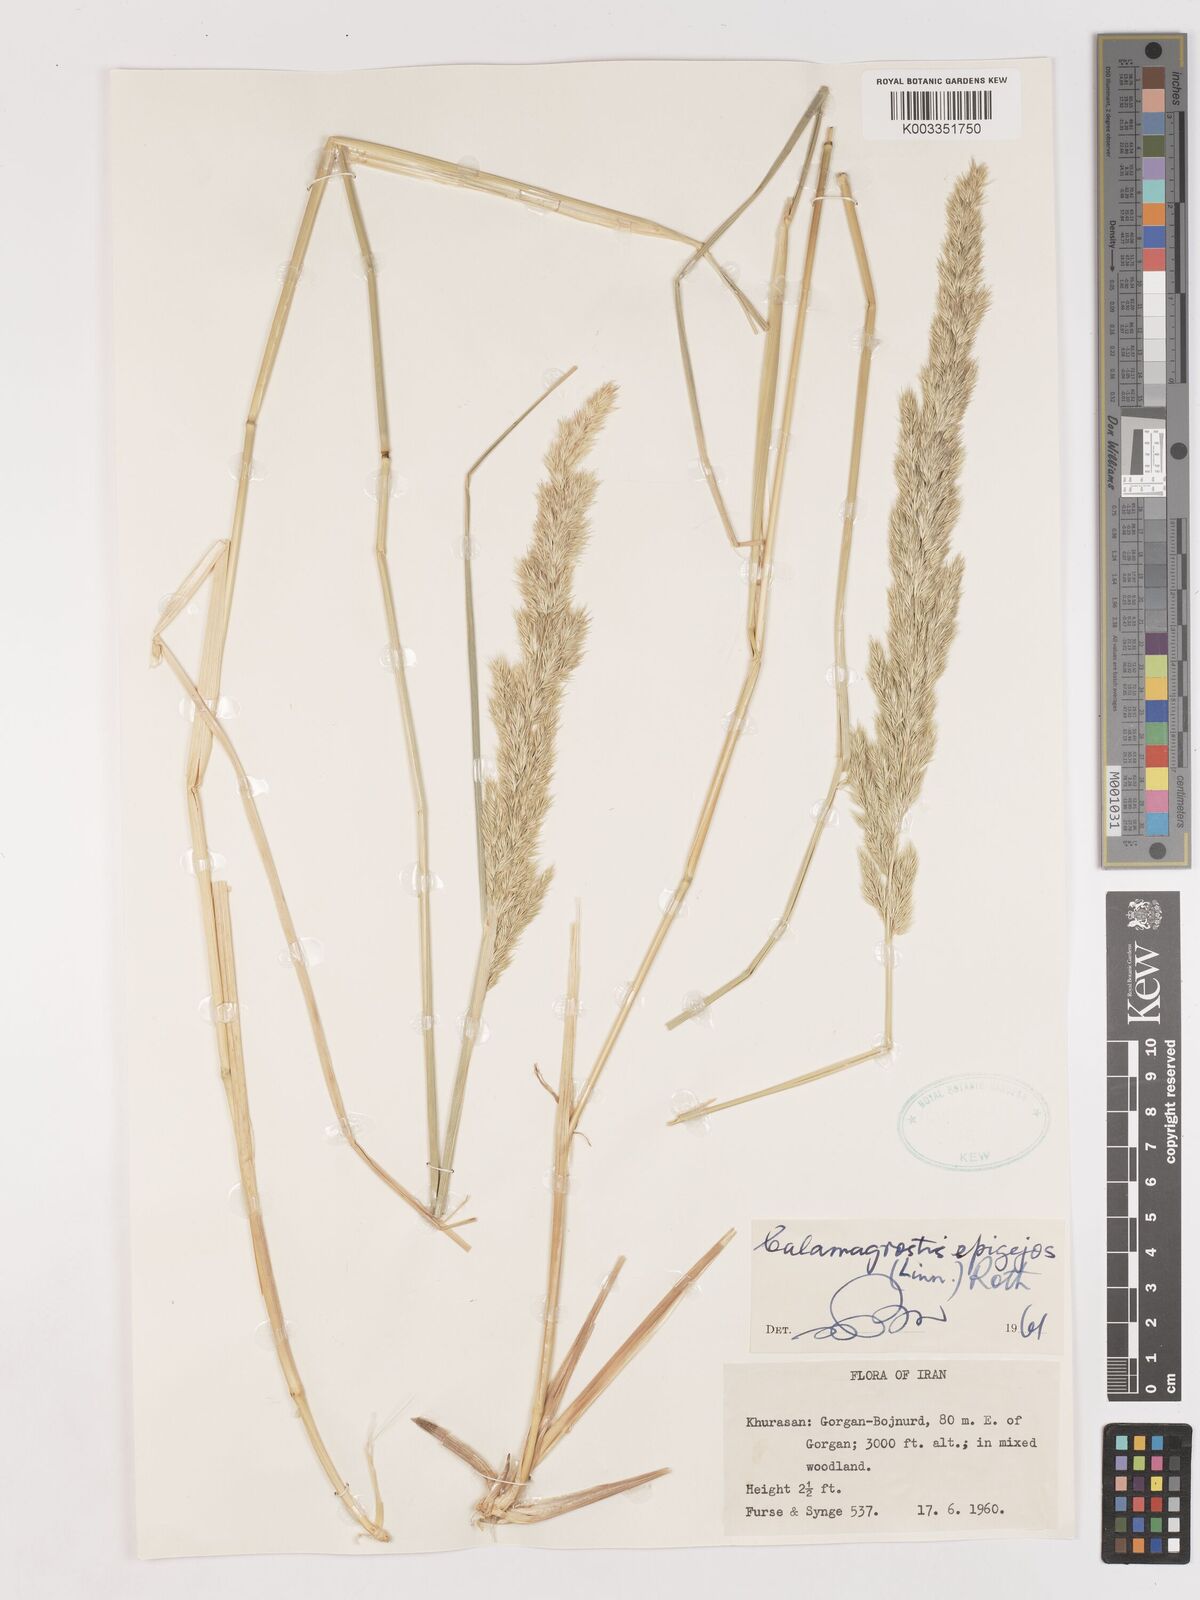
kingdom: Plantae
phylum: Tracheophyta
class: Liliopsida
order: Poales
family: Poaceae
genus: Calamagrostis
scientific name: Calamagrostis
